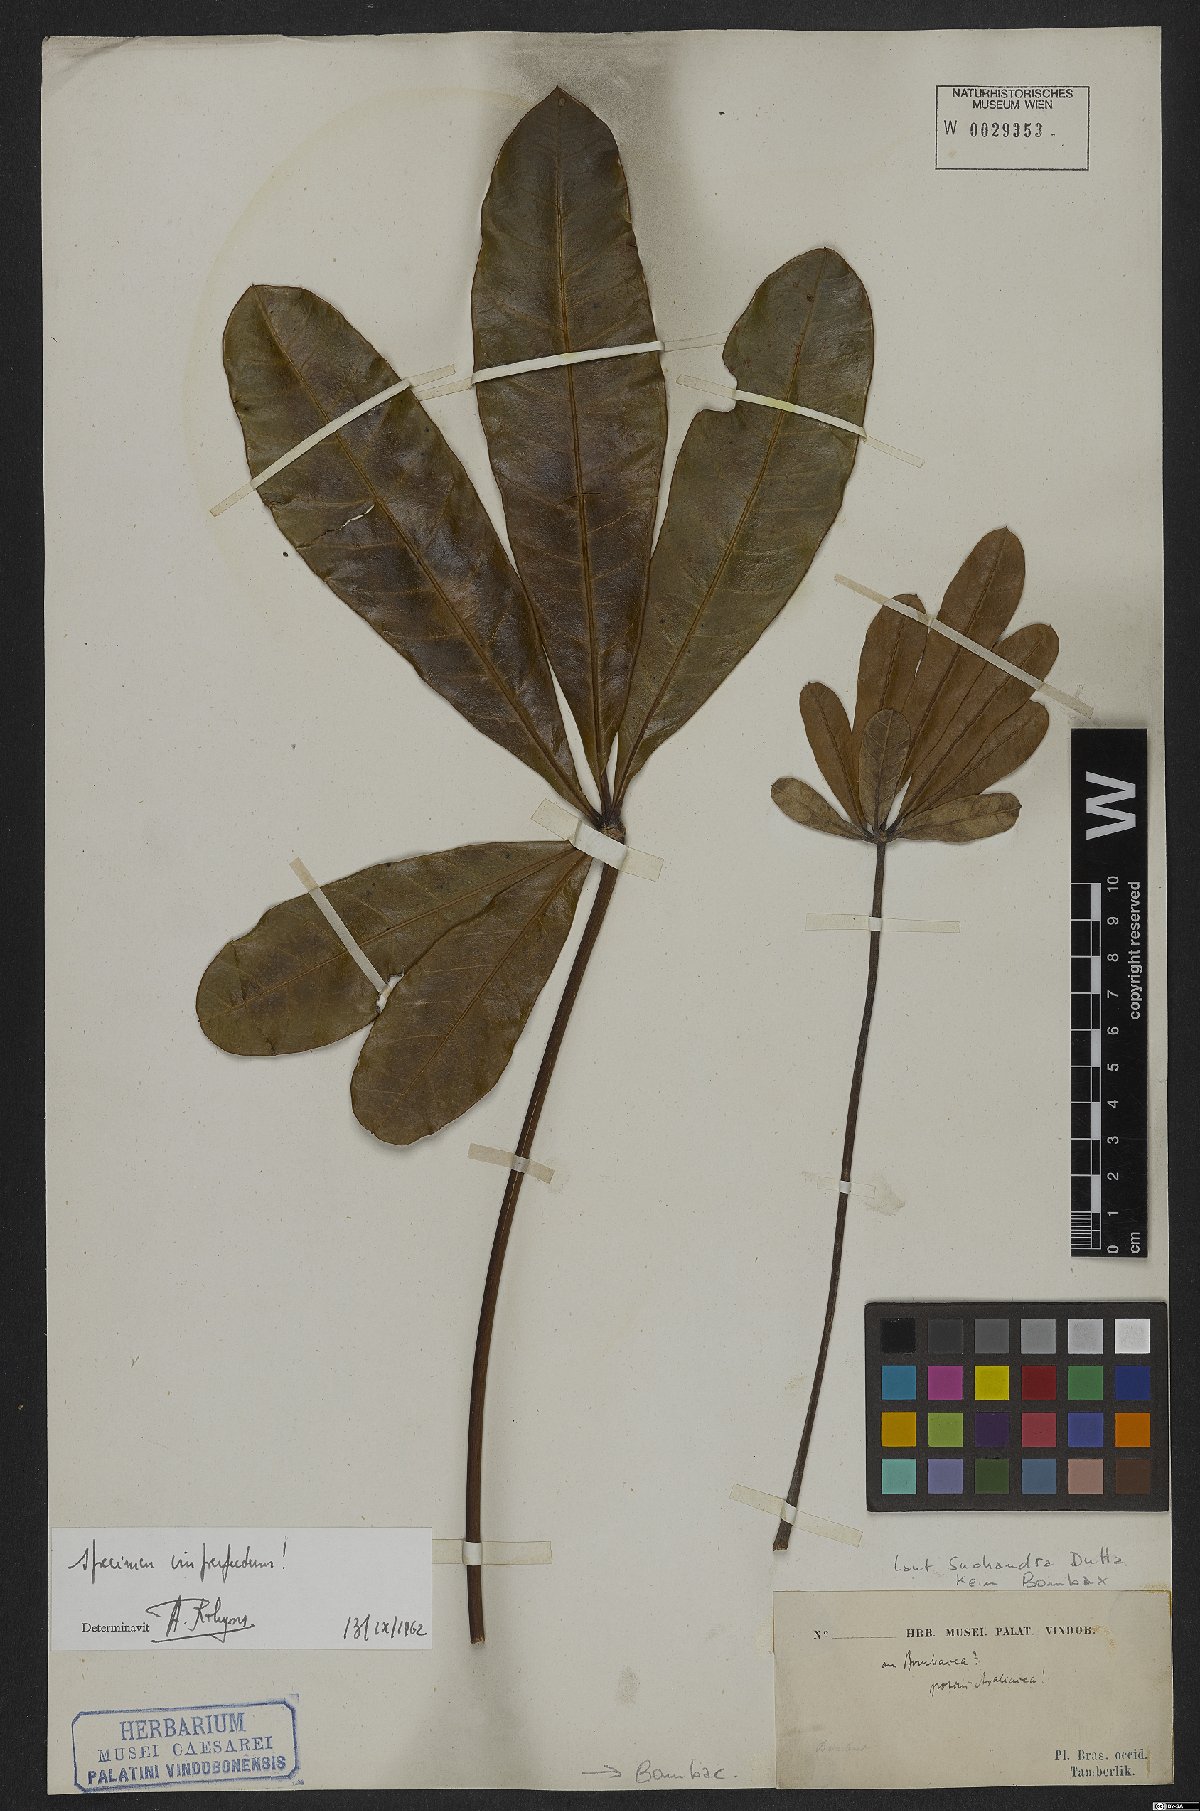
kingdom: Plantae
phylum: Tracheophyta
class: Magnoliopsida
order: Malvales
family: Malvaceae
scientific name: Malvaceae
